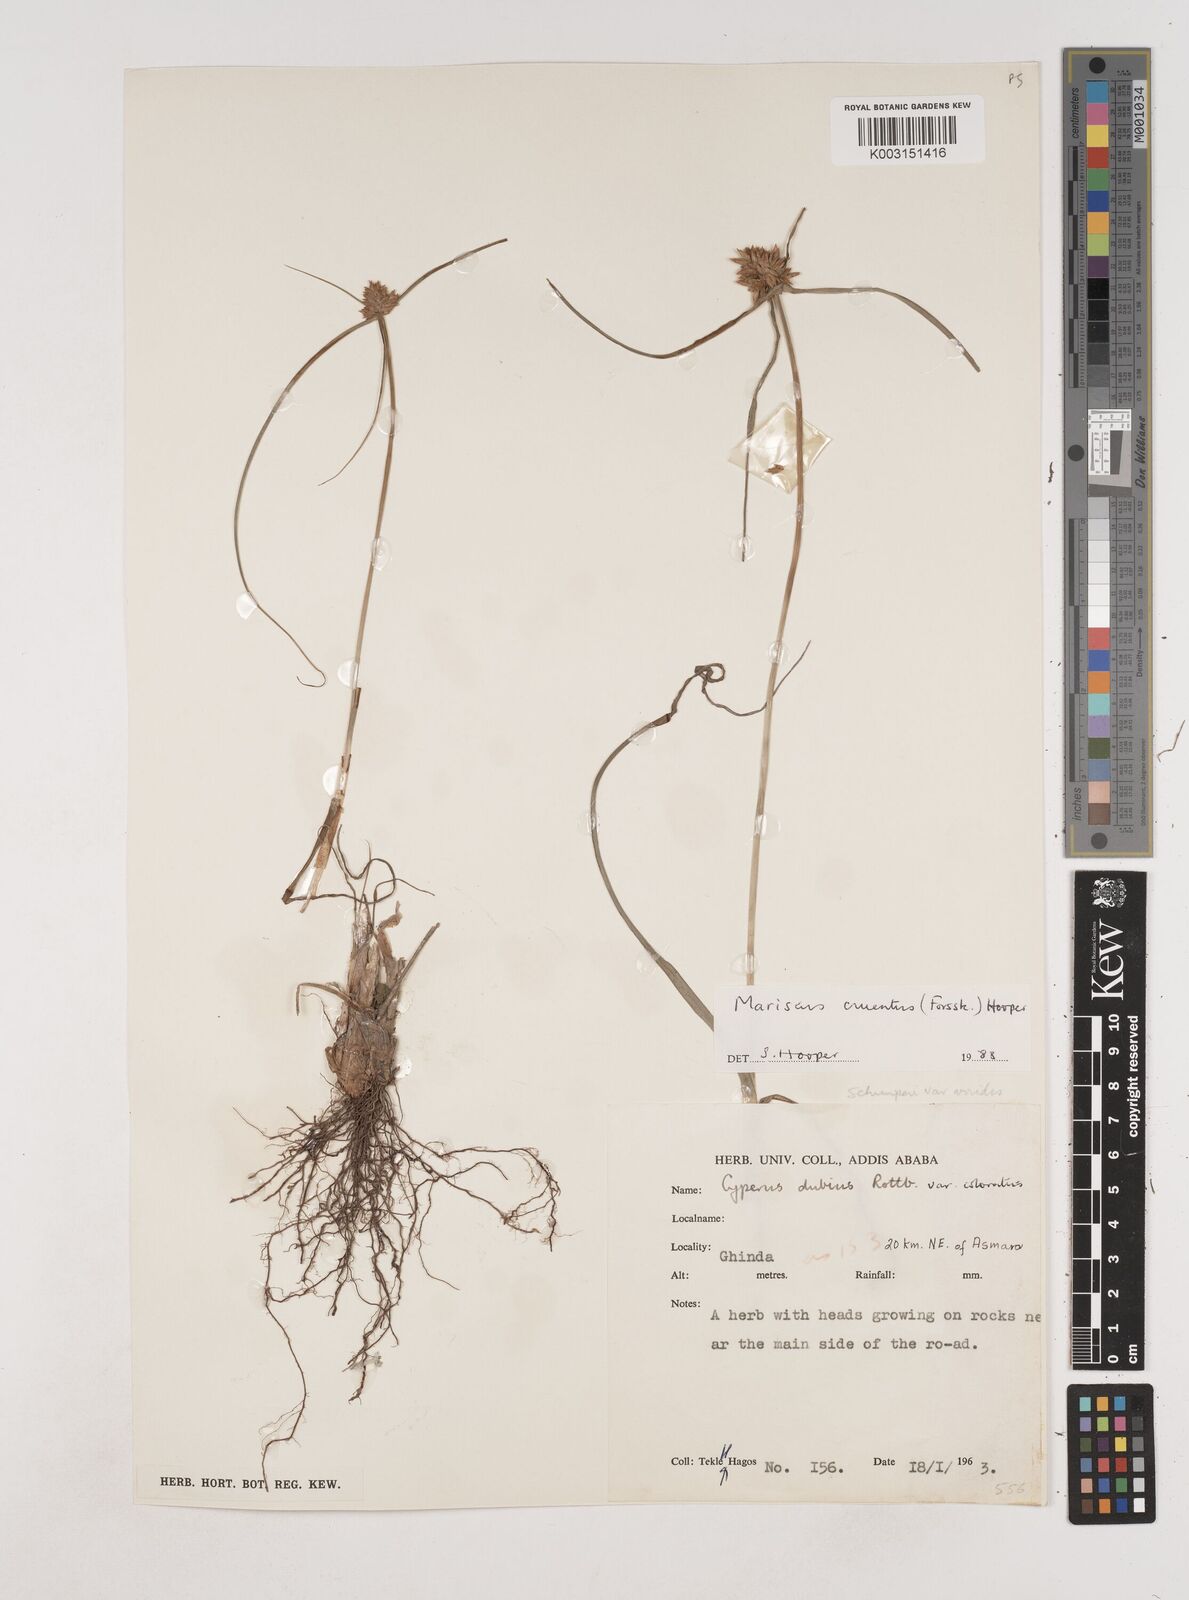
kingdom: Plantae
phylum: Tracheophyta
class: Liliopsida
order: Poales
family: Cyperaceae
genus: Cyperus
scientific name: Cyperus cruentus
